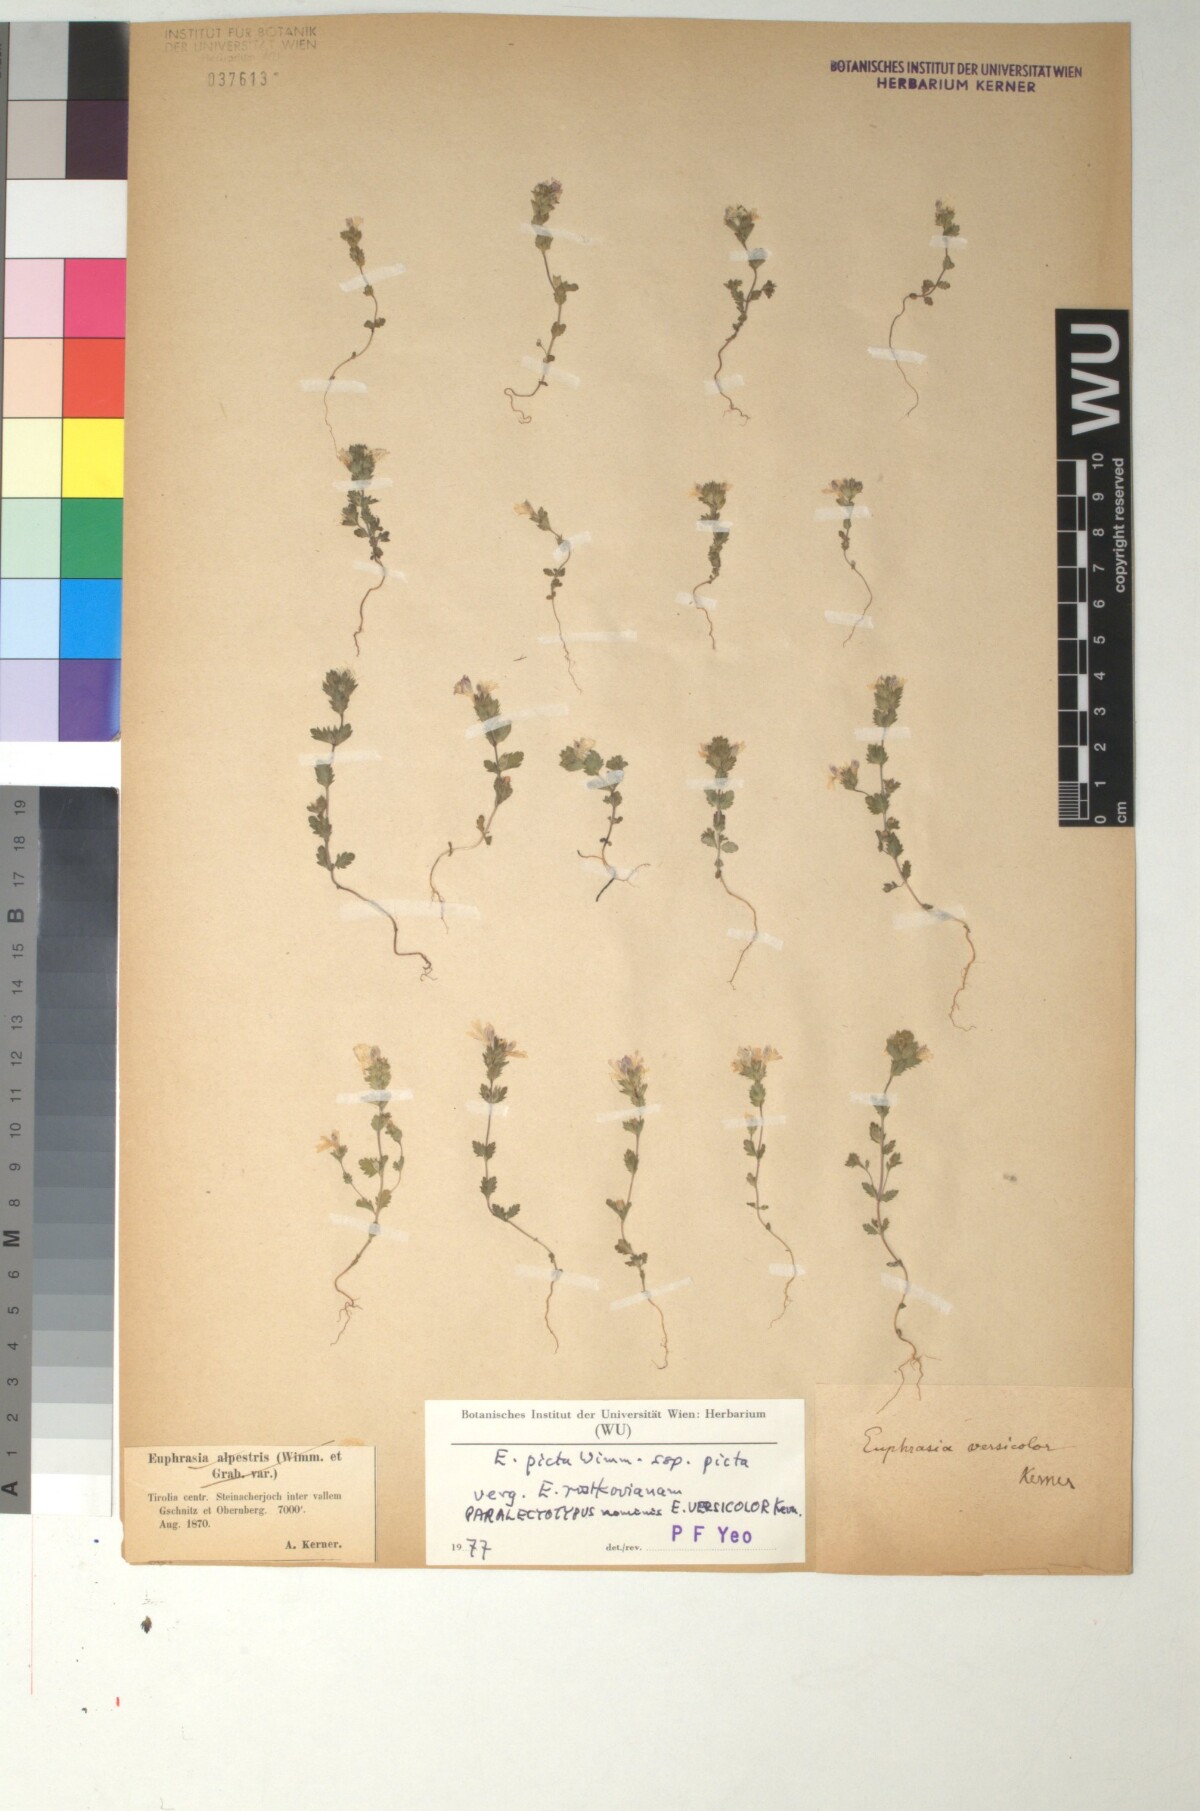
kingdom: Plantae
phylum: Tracheophyta
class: Magnoliopsida
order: Lamiales
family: Orobanchaceae
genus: Euphrasia
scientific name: Euphrasia picta
